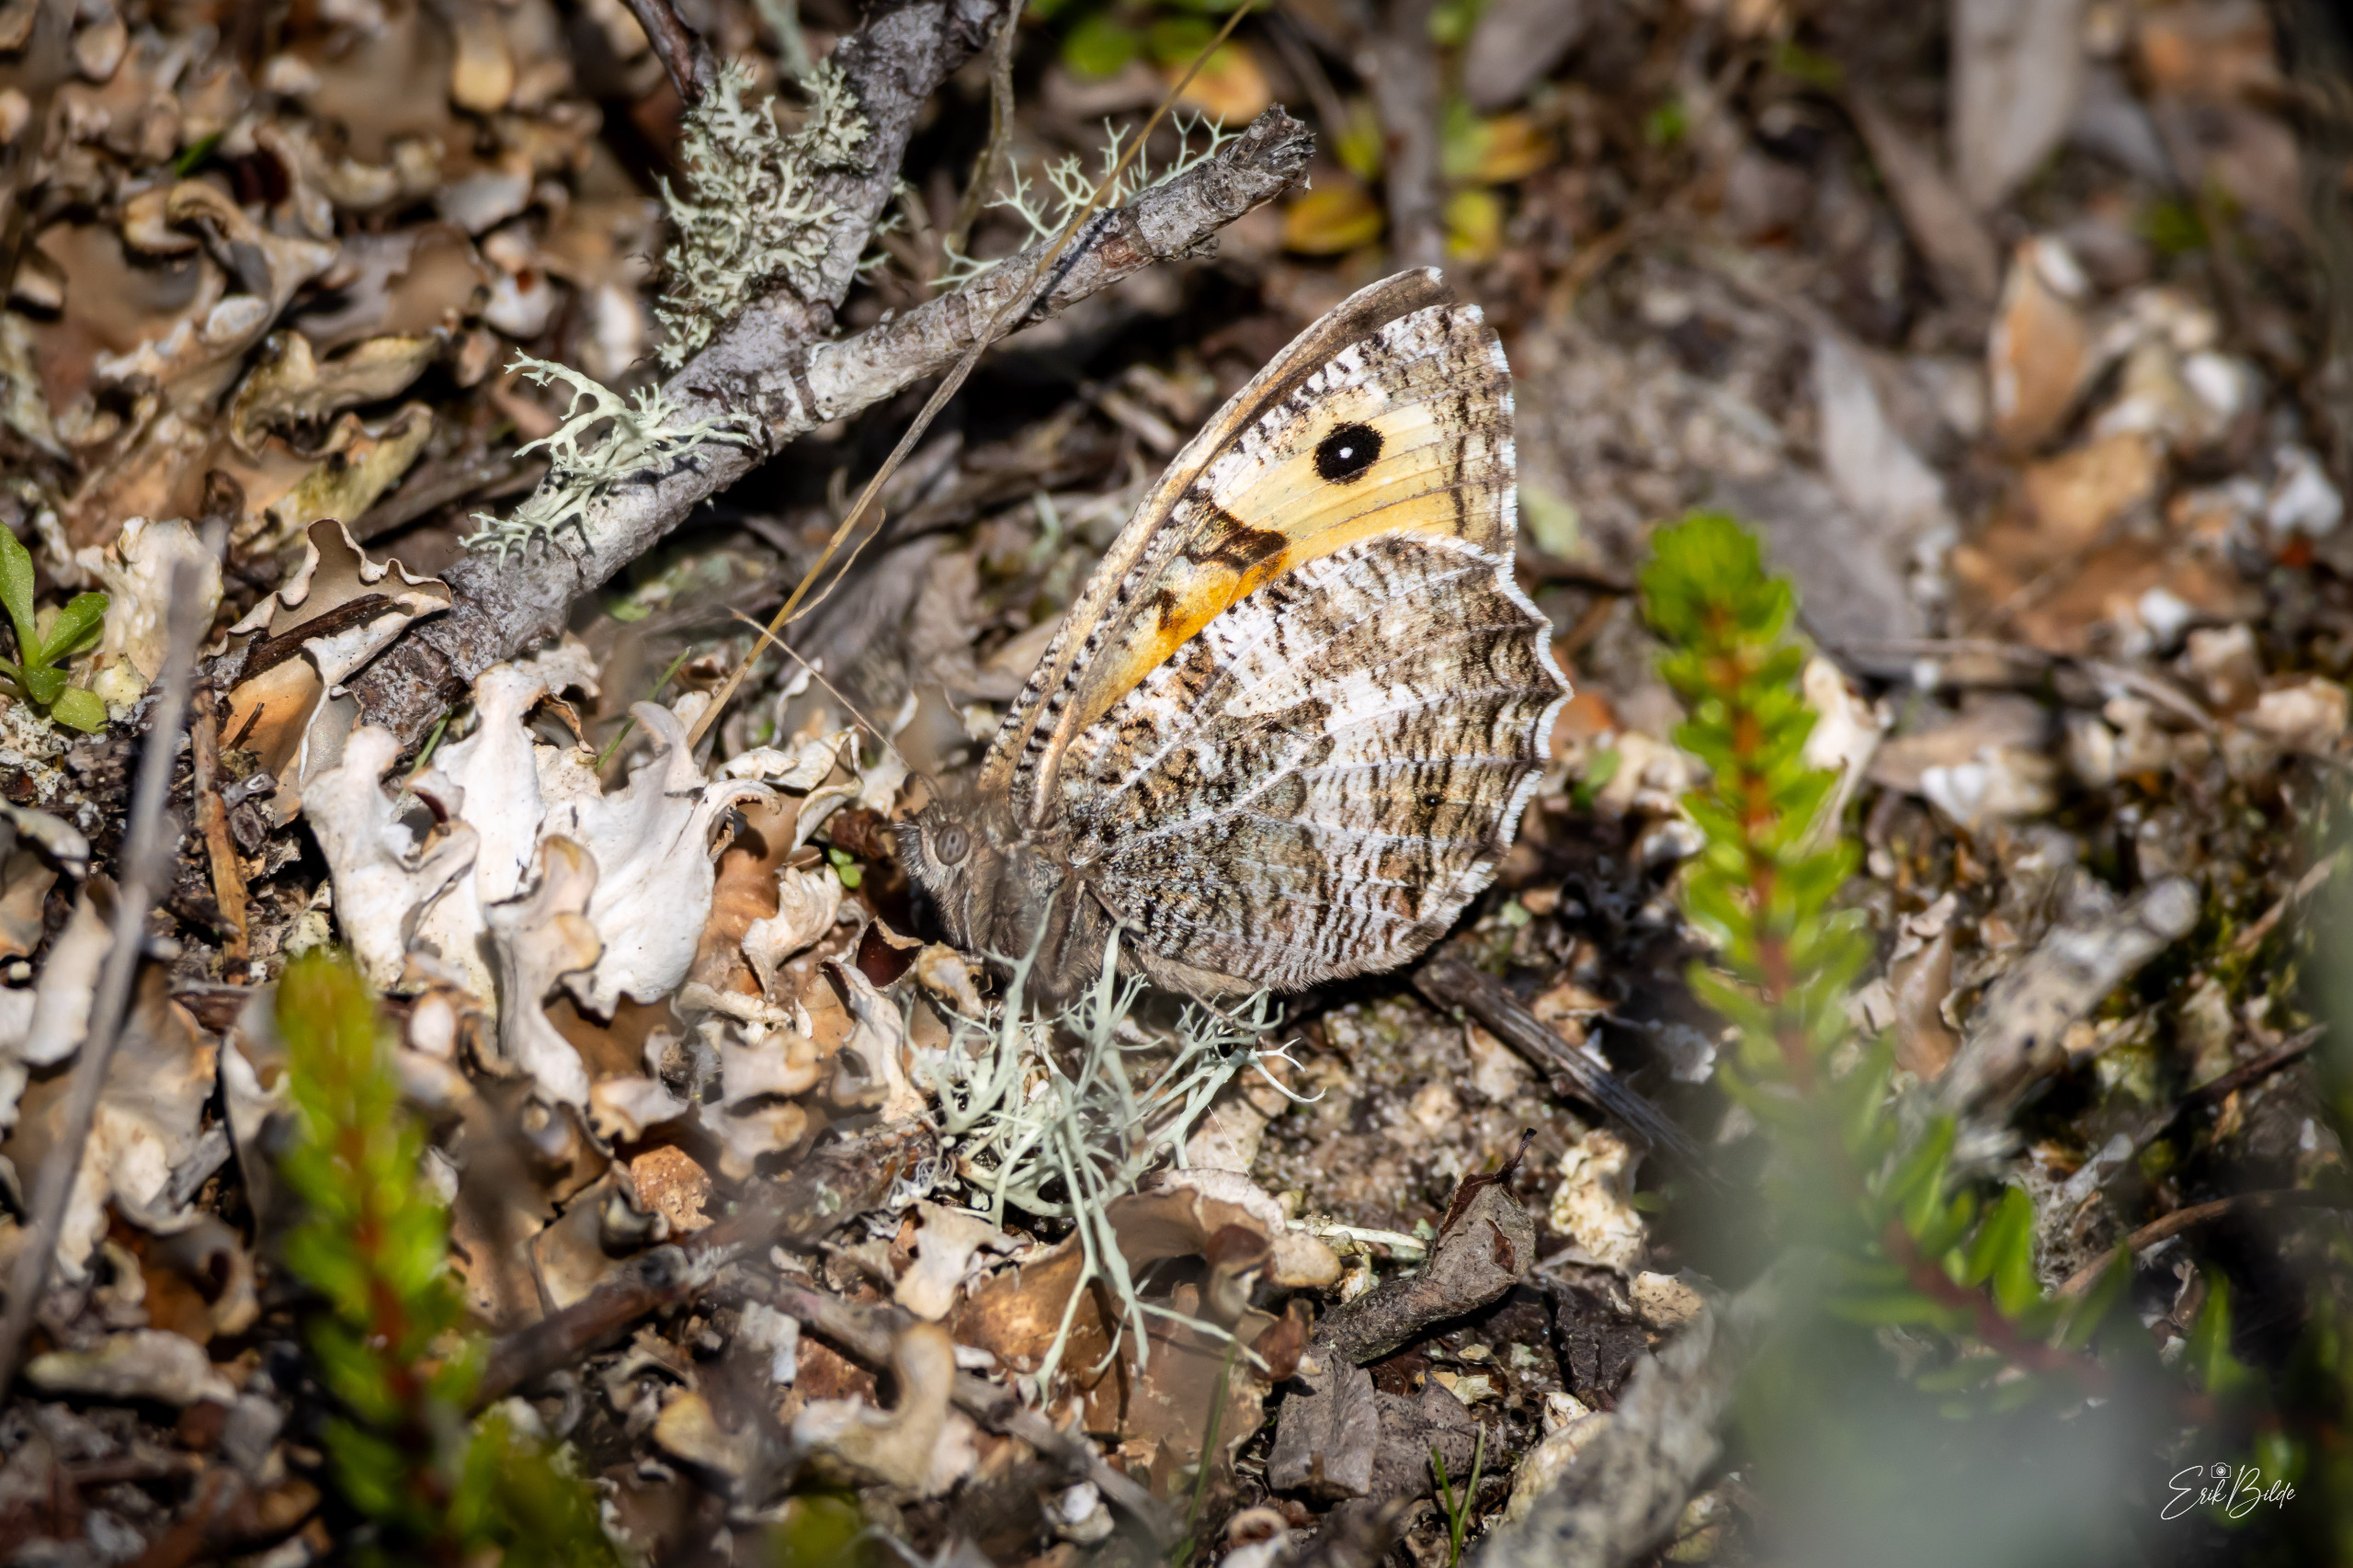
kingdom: Animalia
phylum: Arthropoda
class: Insecta
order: Lepidoptera
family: Nymphalidae
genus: Hipparchia
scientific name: Hipparchia semele
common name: Sandrandøje
